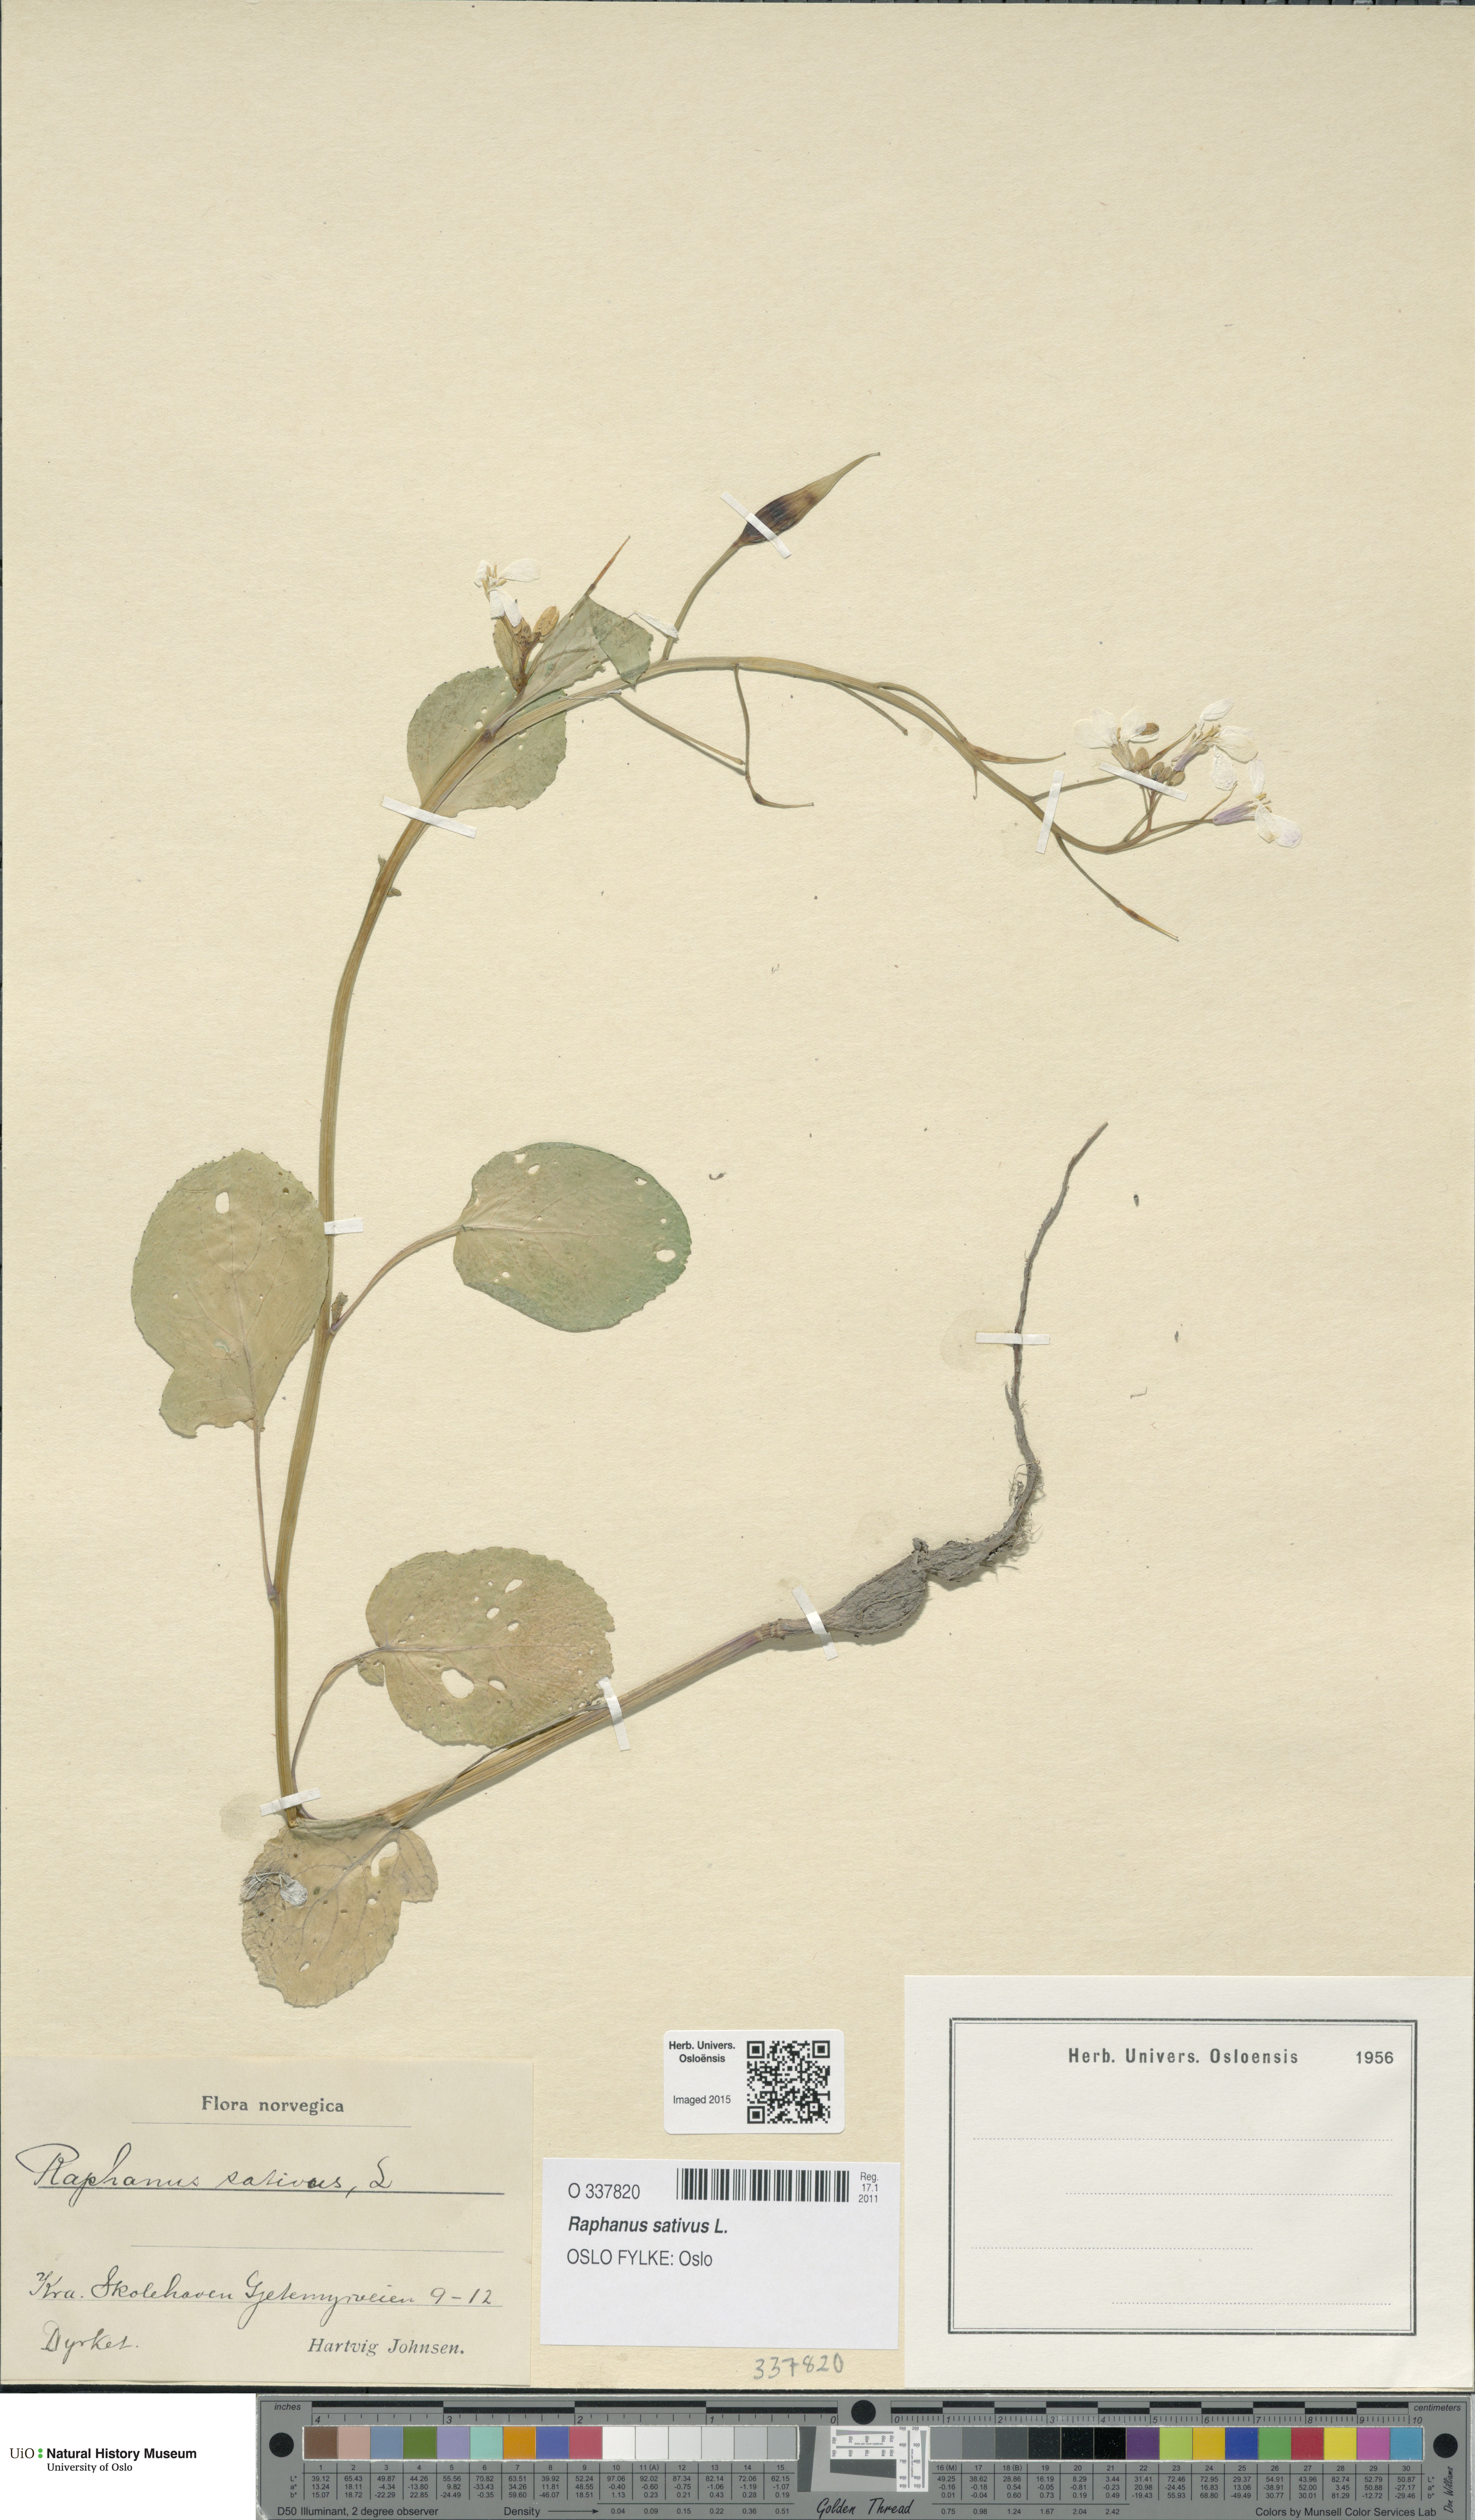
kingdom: Plantae
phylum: Tracheophyta
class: Magnoliopsida
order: Brassicales
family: Brassicaceae
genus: Raphanus
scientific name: Raphanus sativus
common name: Cultivated radish
